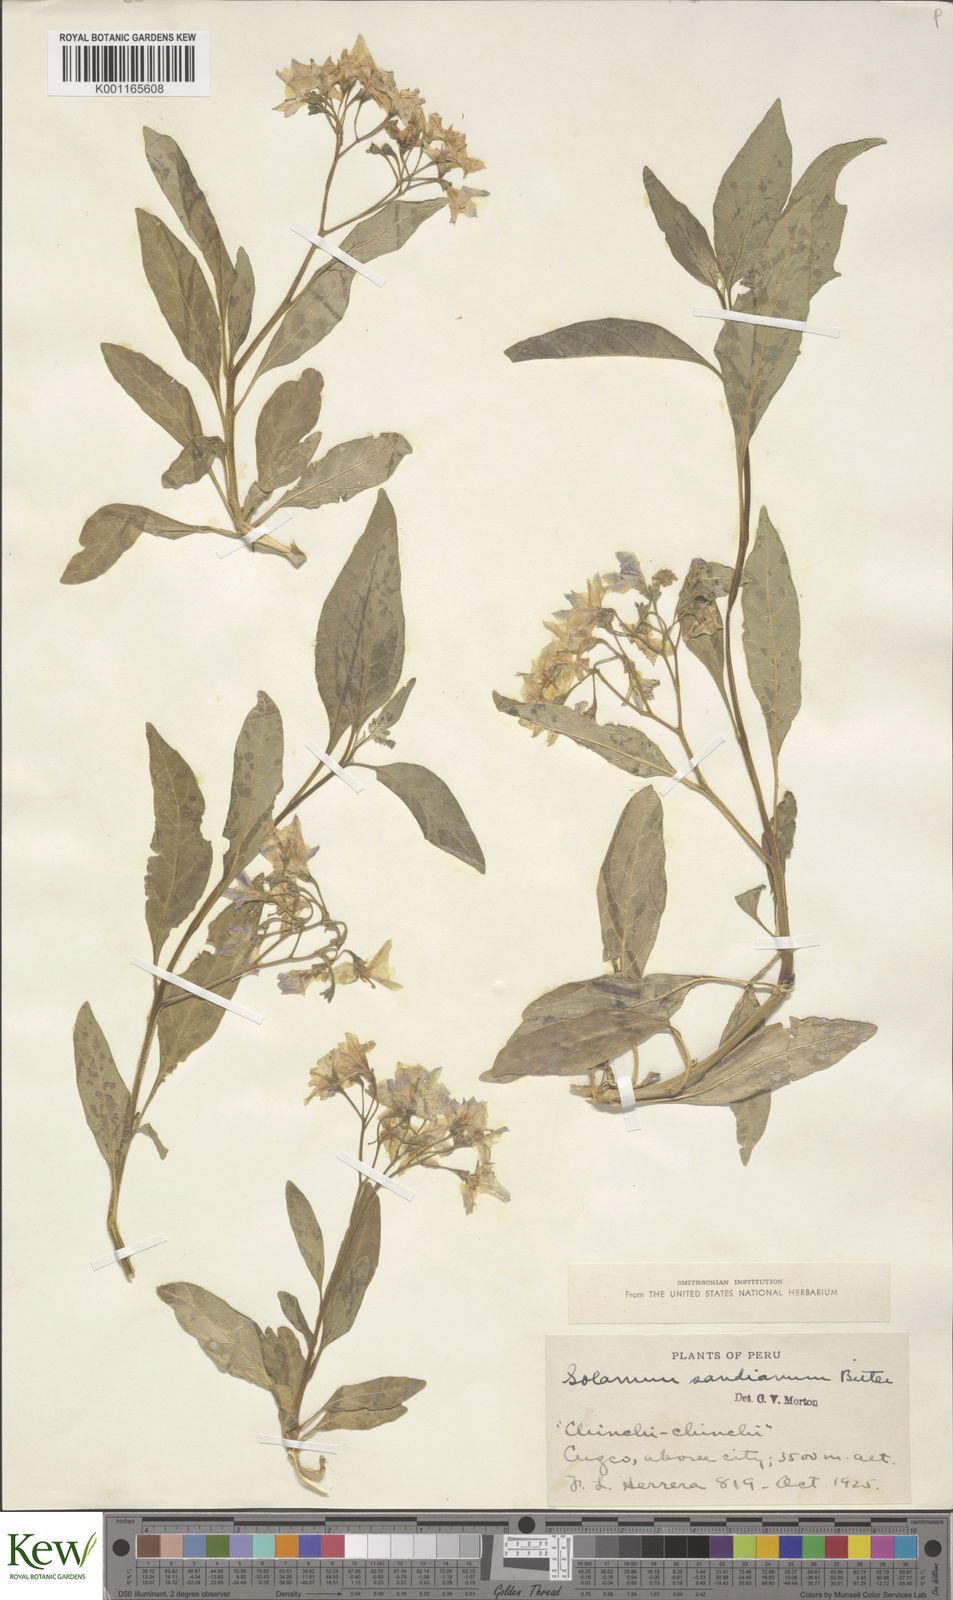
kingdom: Plantae
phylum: Tracheophyta
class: Magnoliopsida
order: Solanales
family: Solanaceae
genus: Solanum
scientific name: Solanum probolospermum
